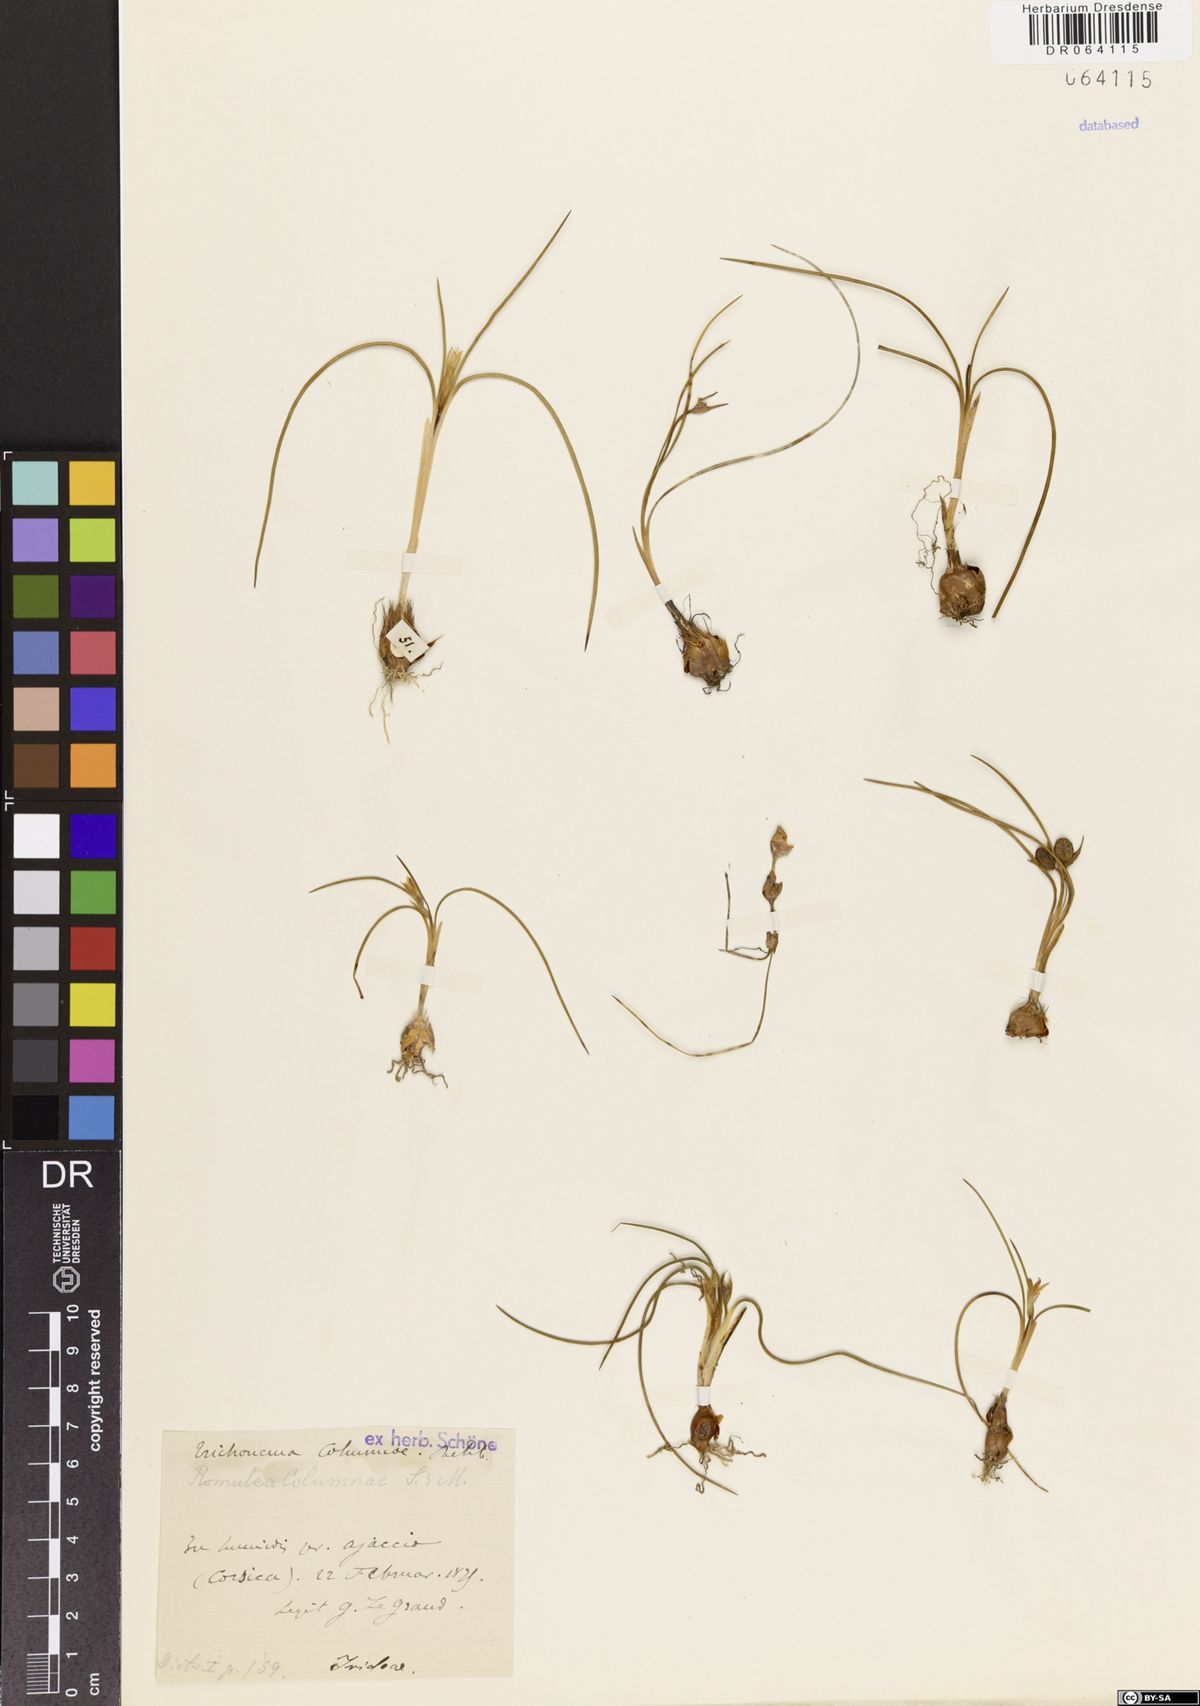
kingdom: Plantae
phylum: Tracheophyta
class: Liliopsida
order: Asparagales
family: Iridaceae
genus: Romulea
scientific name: Romulea columnae
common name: Sand-crocus
